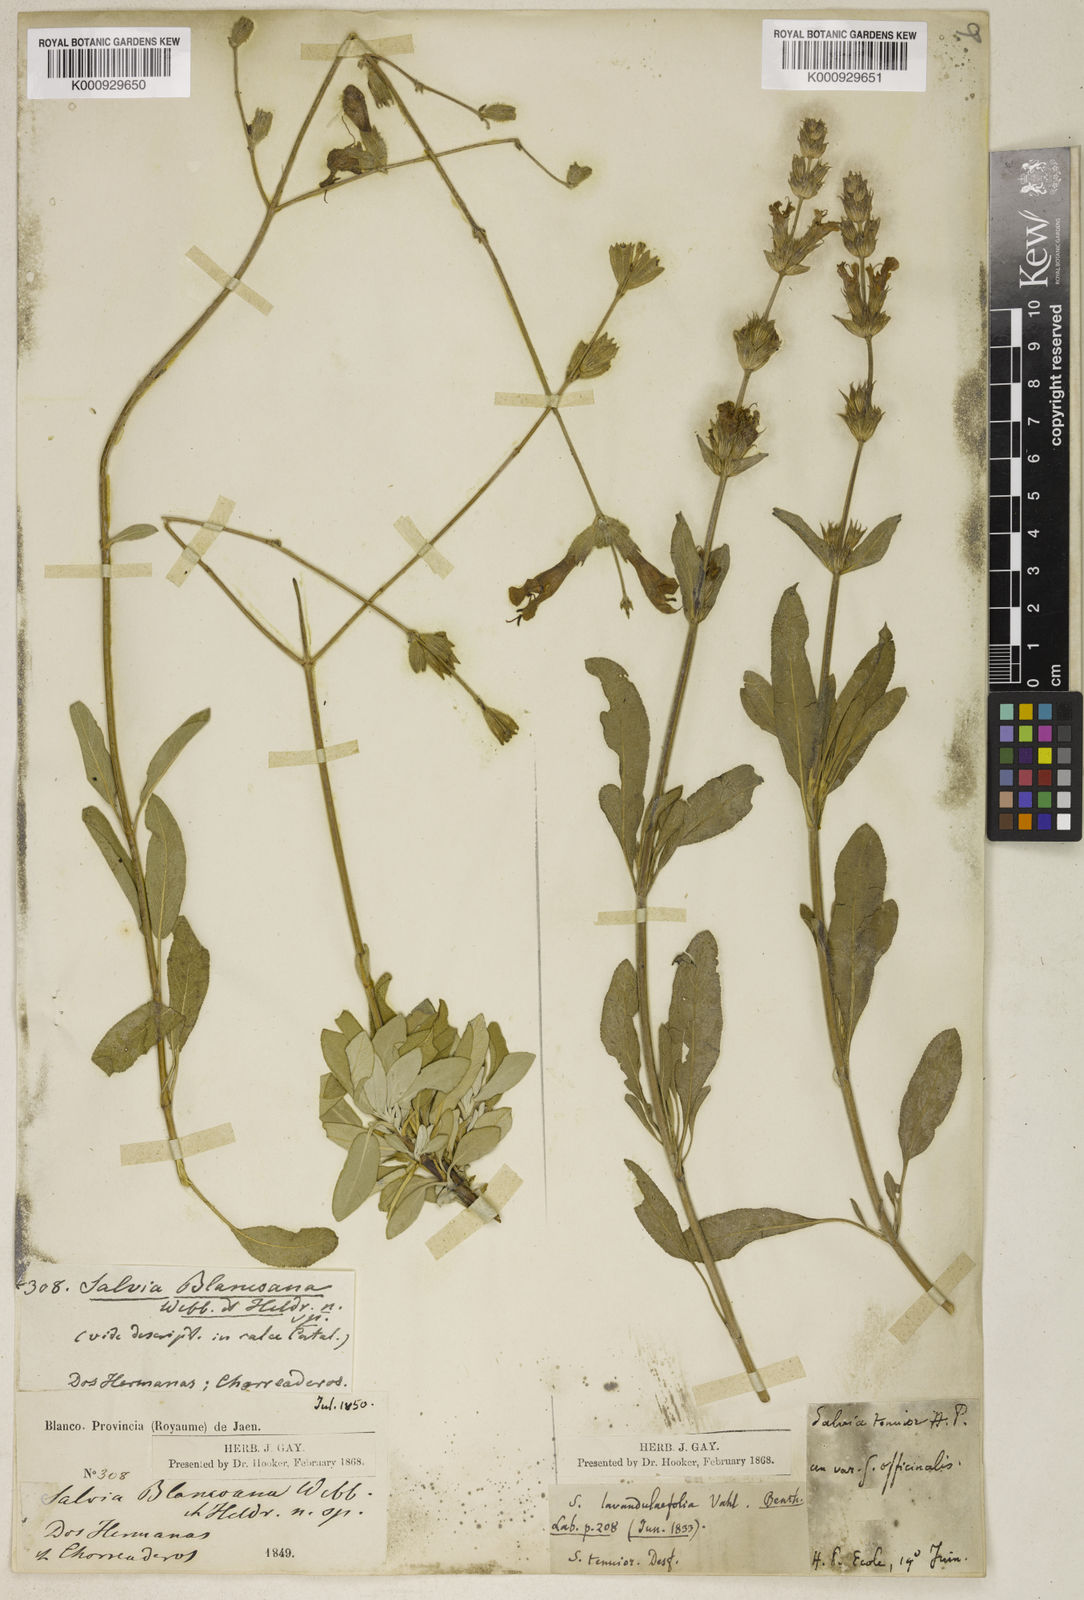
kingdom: Plantae
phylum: Tracheophyta
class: Magnoliopsida
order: Lamiales
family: Lamiaceae
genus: Salvia
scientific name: Salvia blancoana
